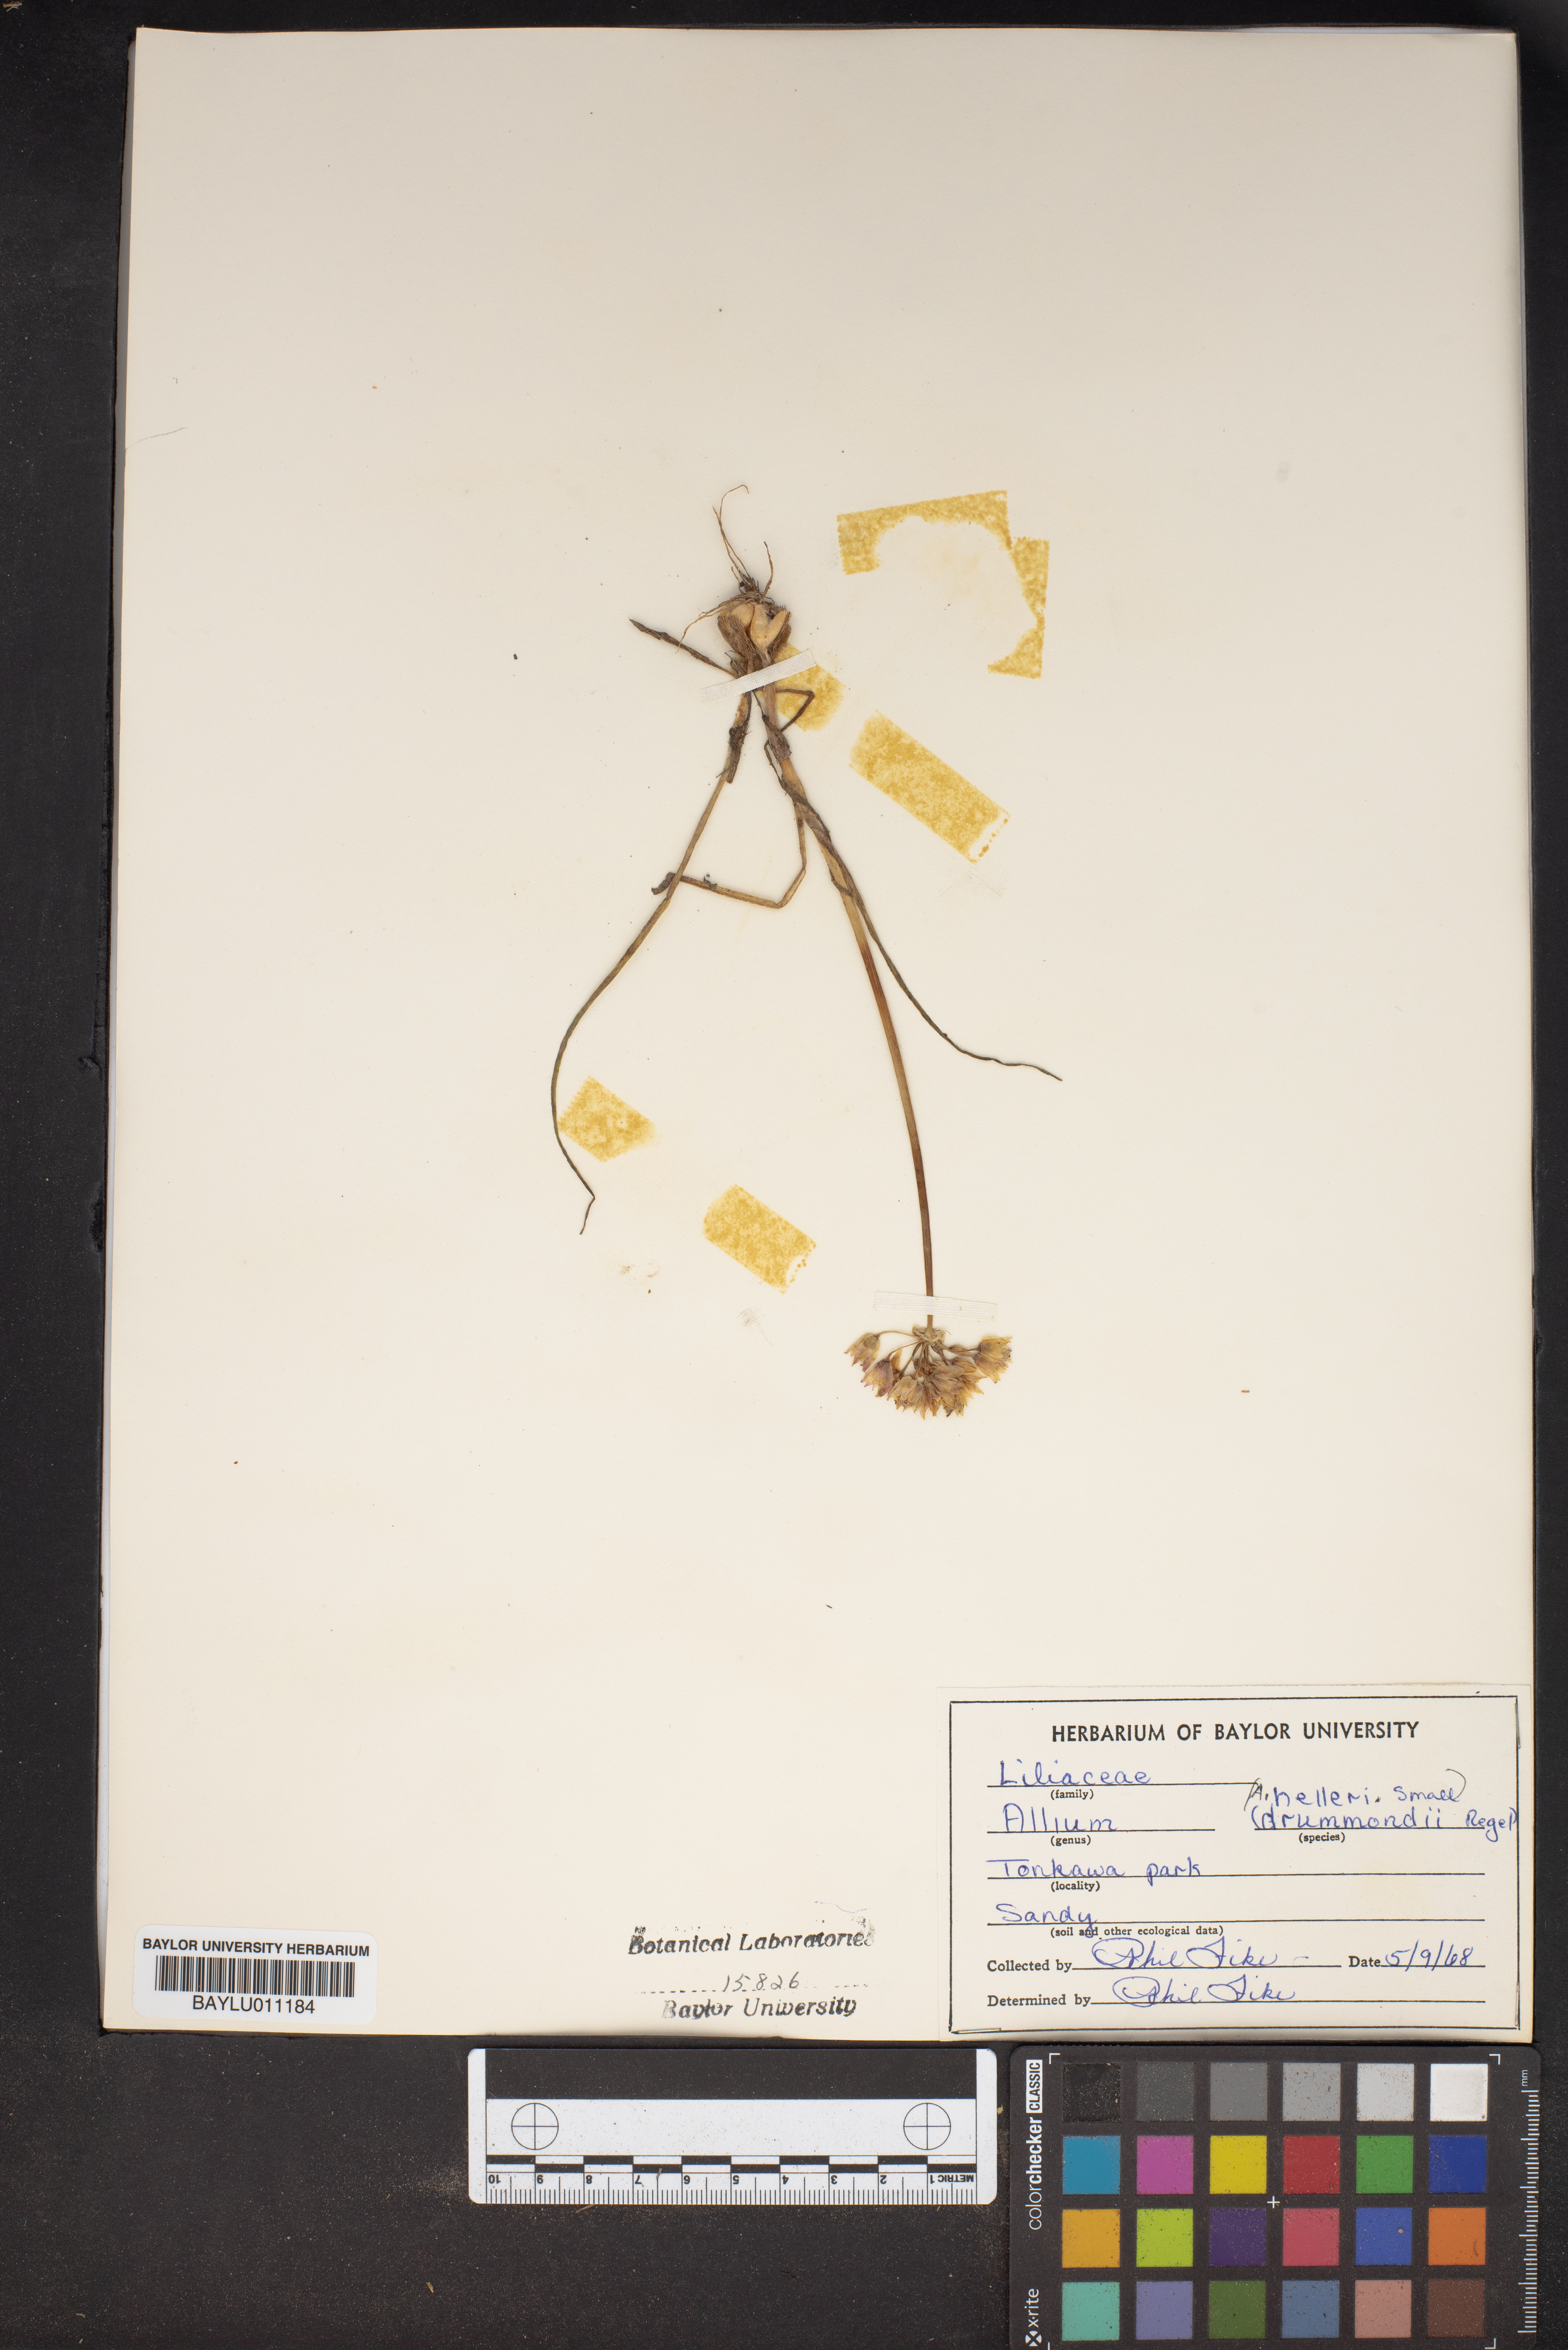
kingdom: Plantae
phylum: Tracheophyta
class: Liliopsida
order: Asparagales
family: Amaryllidaceae
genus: Allium
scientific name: Allium drummondii
